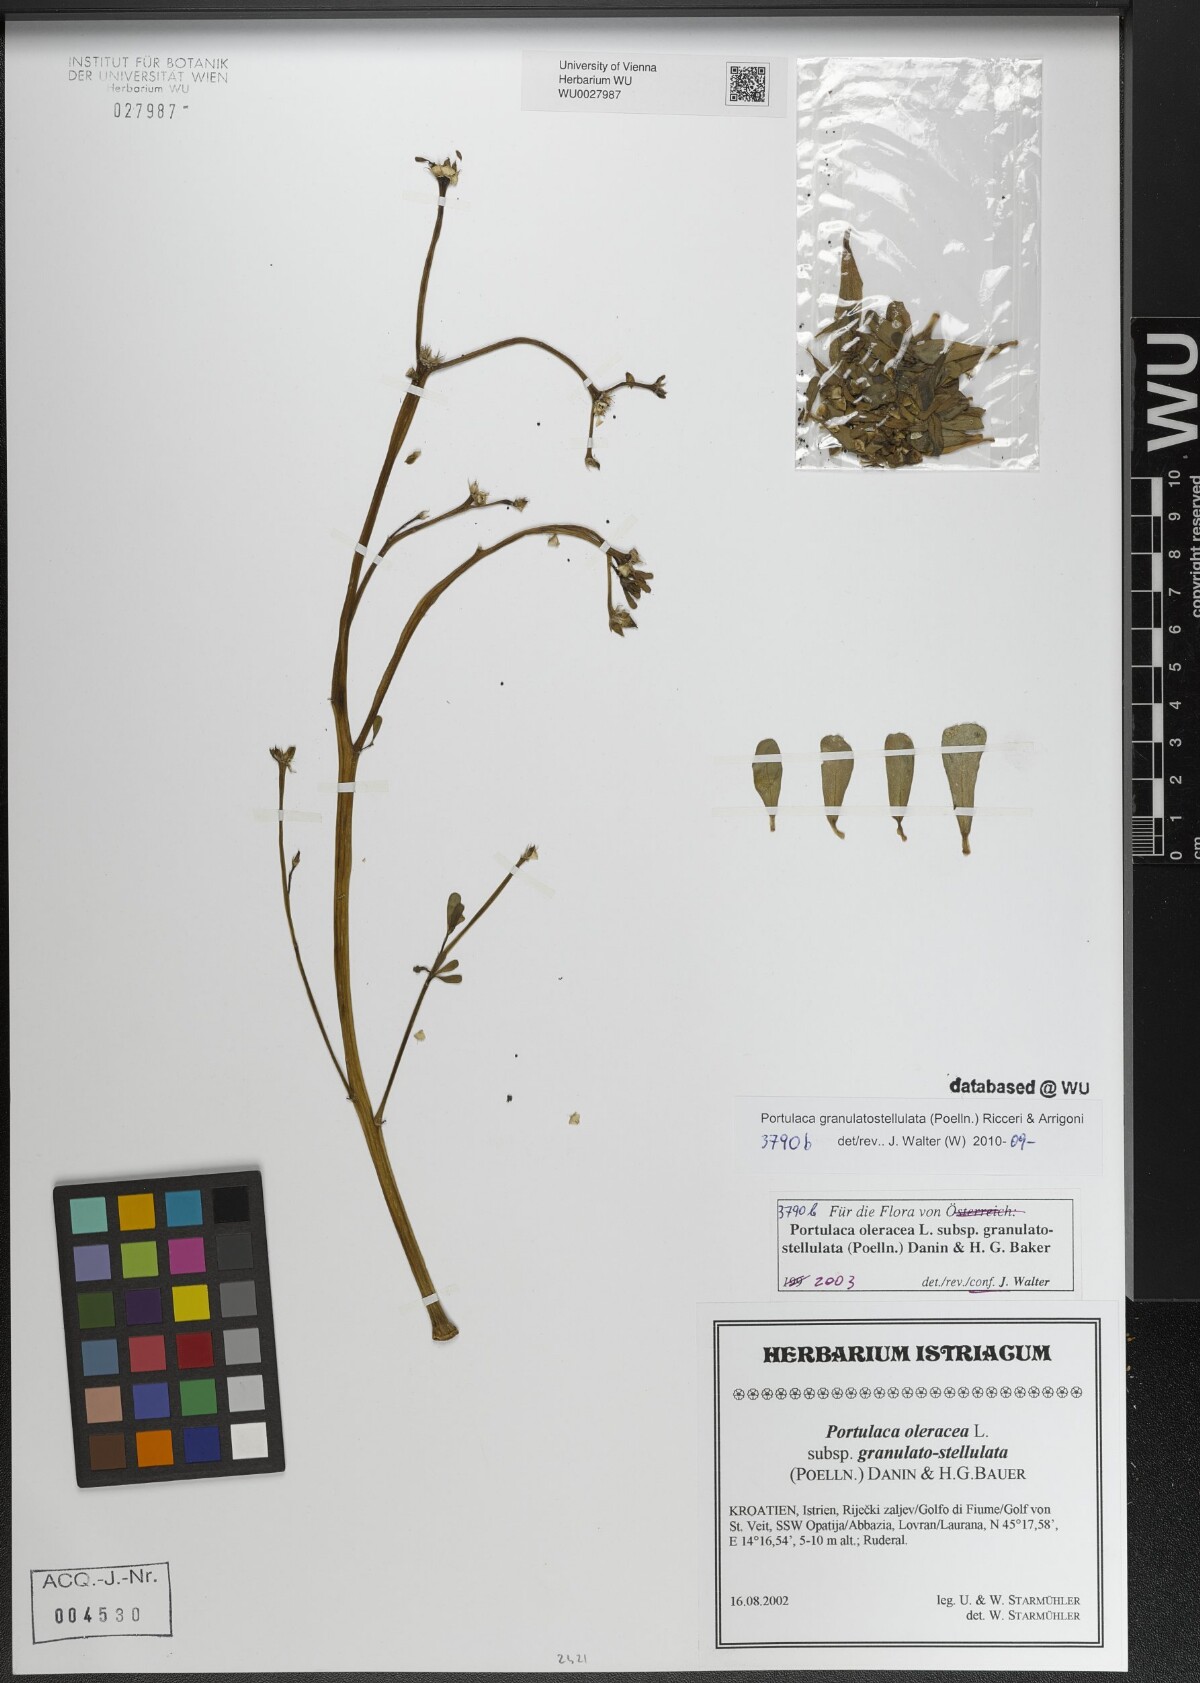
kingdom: Plantae
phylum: Tracheophyta
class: Magnoliopsida
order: Caryophyllales
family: Portulacaceae
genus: Portulaca
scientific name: Portulaca granulatostellulata
